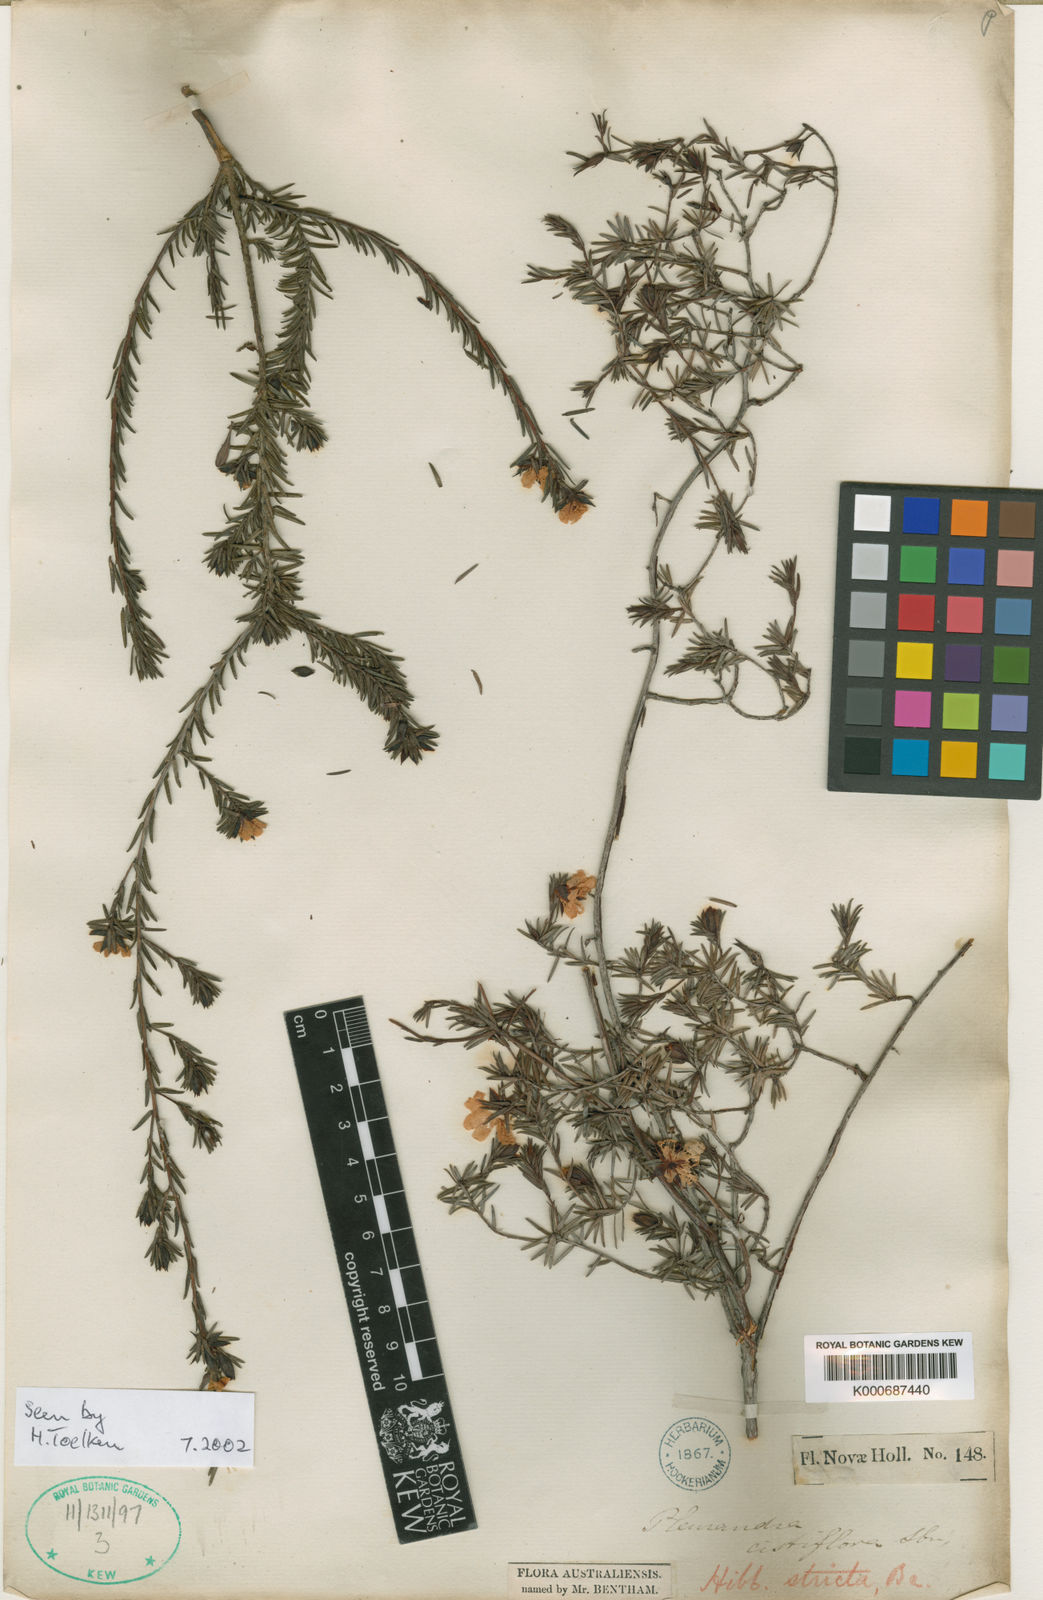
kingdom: Plantae
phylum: Tracheophyta
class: Magnoliopsida
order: Dilleniales
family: Dilleniaceae
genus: Hibbertia
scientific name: Hibbertia stricta
